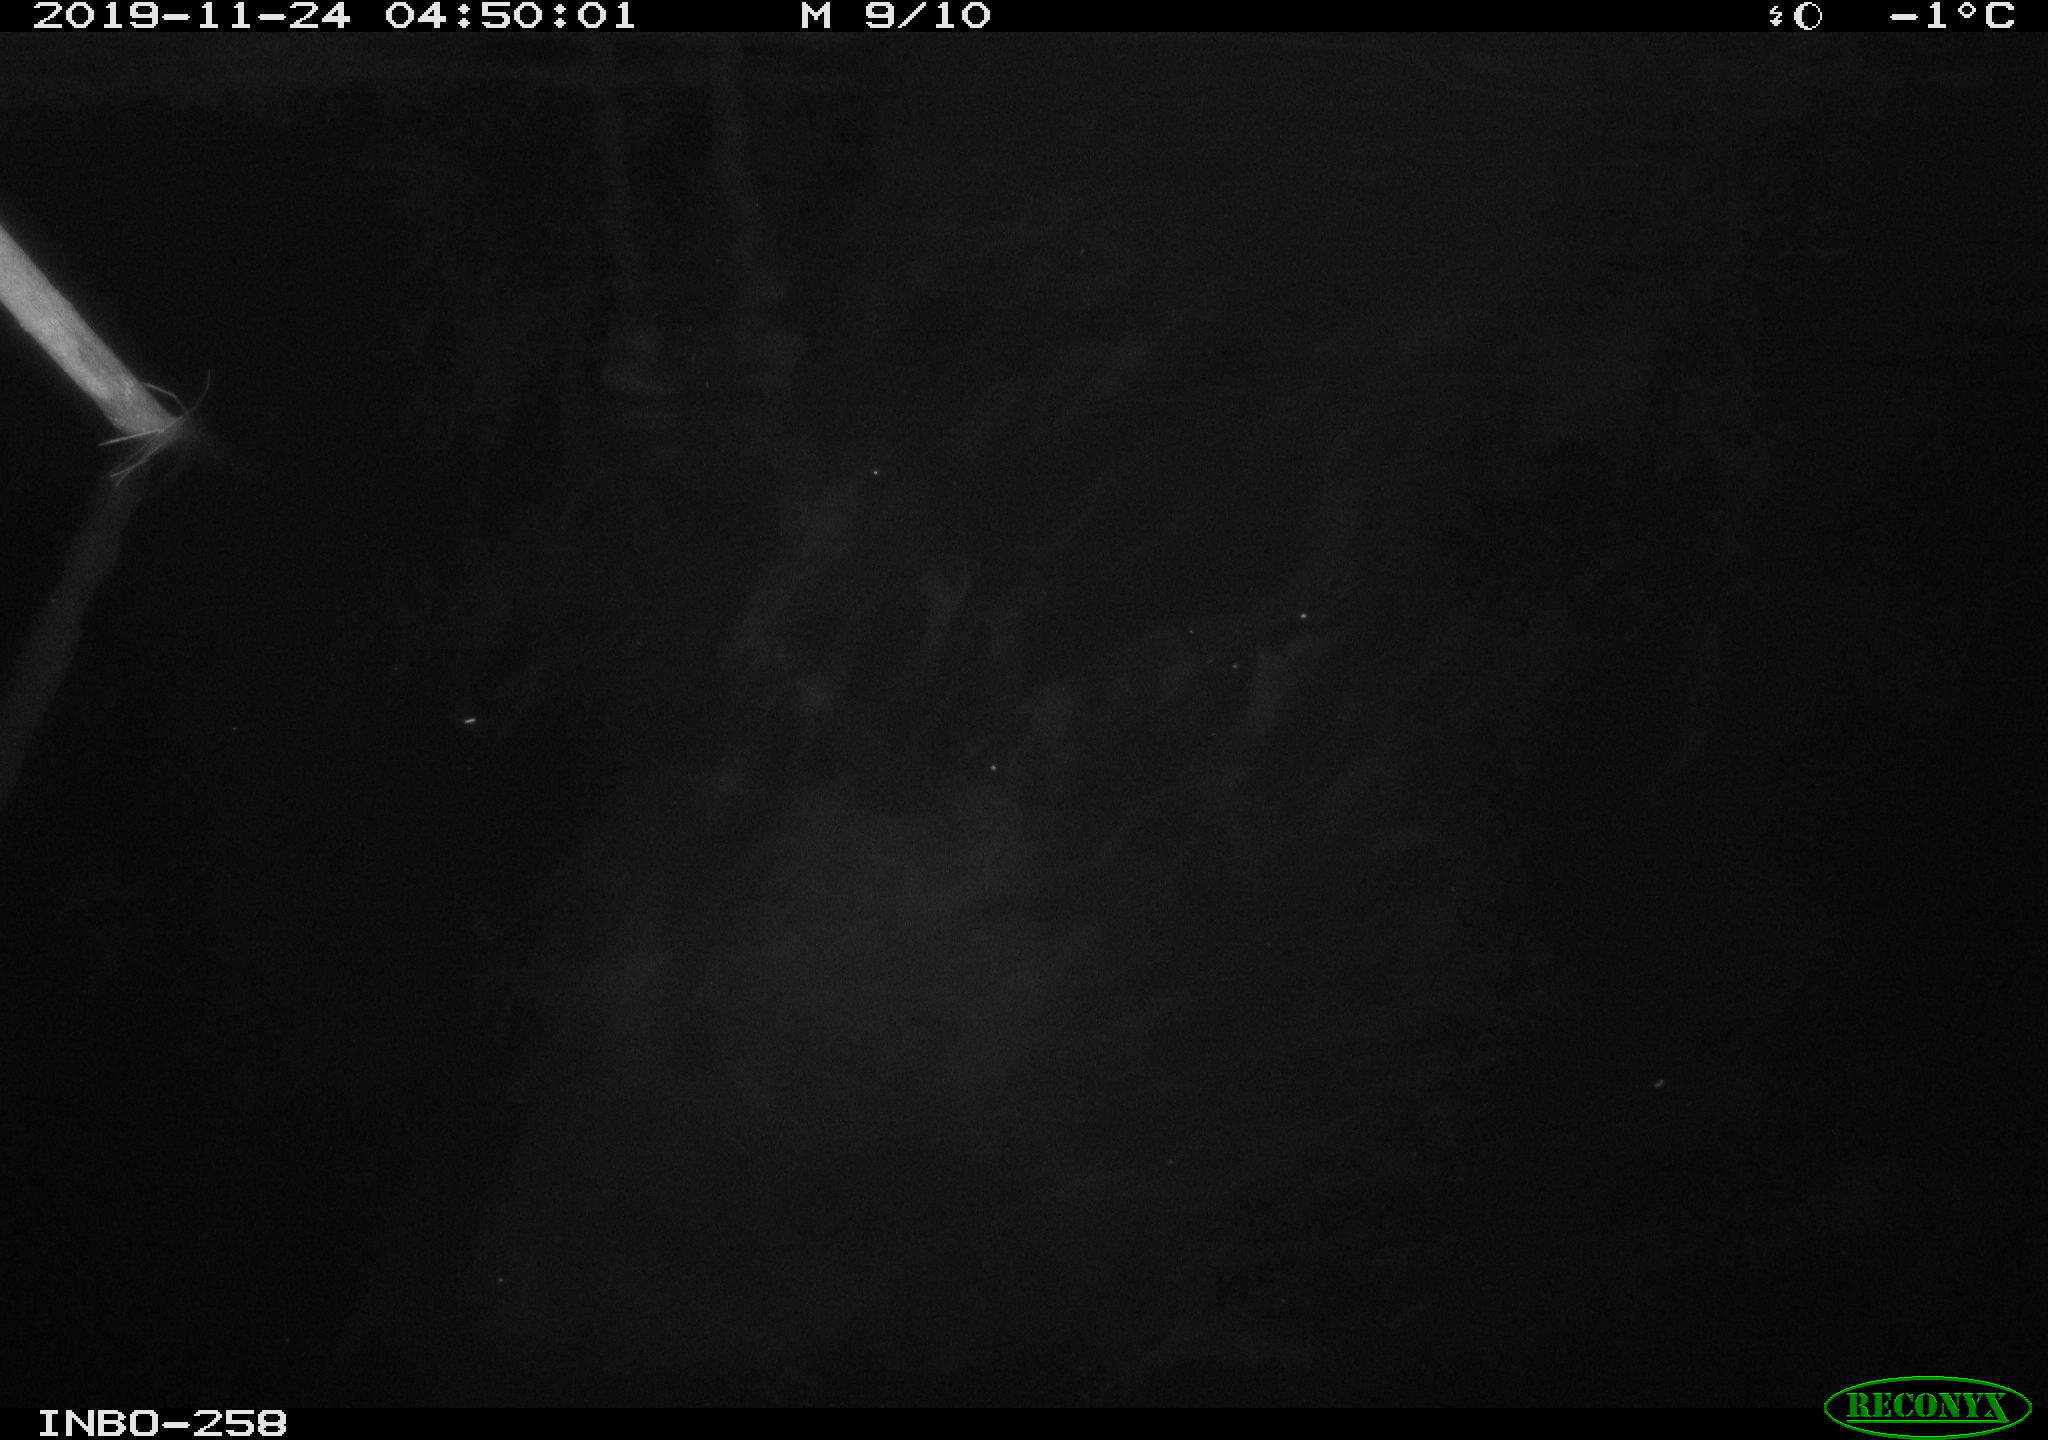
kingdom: Animalia
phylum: Chordata
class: Aves
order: Anseriformes
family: Anatidae
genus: Anas
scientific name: Anas platyrhynchos
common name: Mallard
